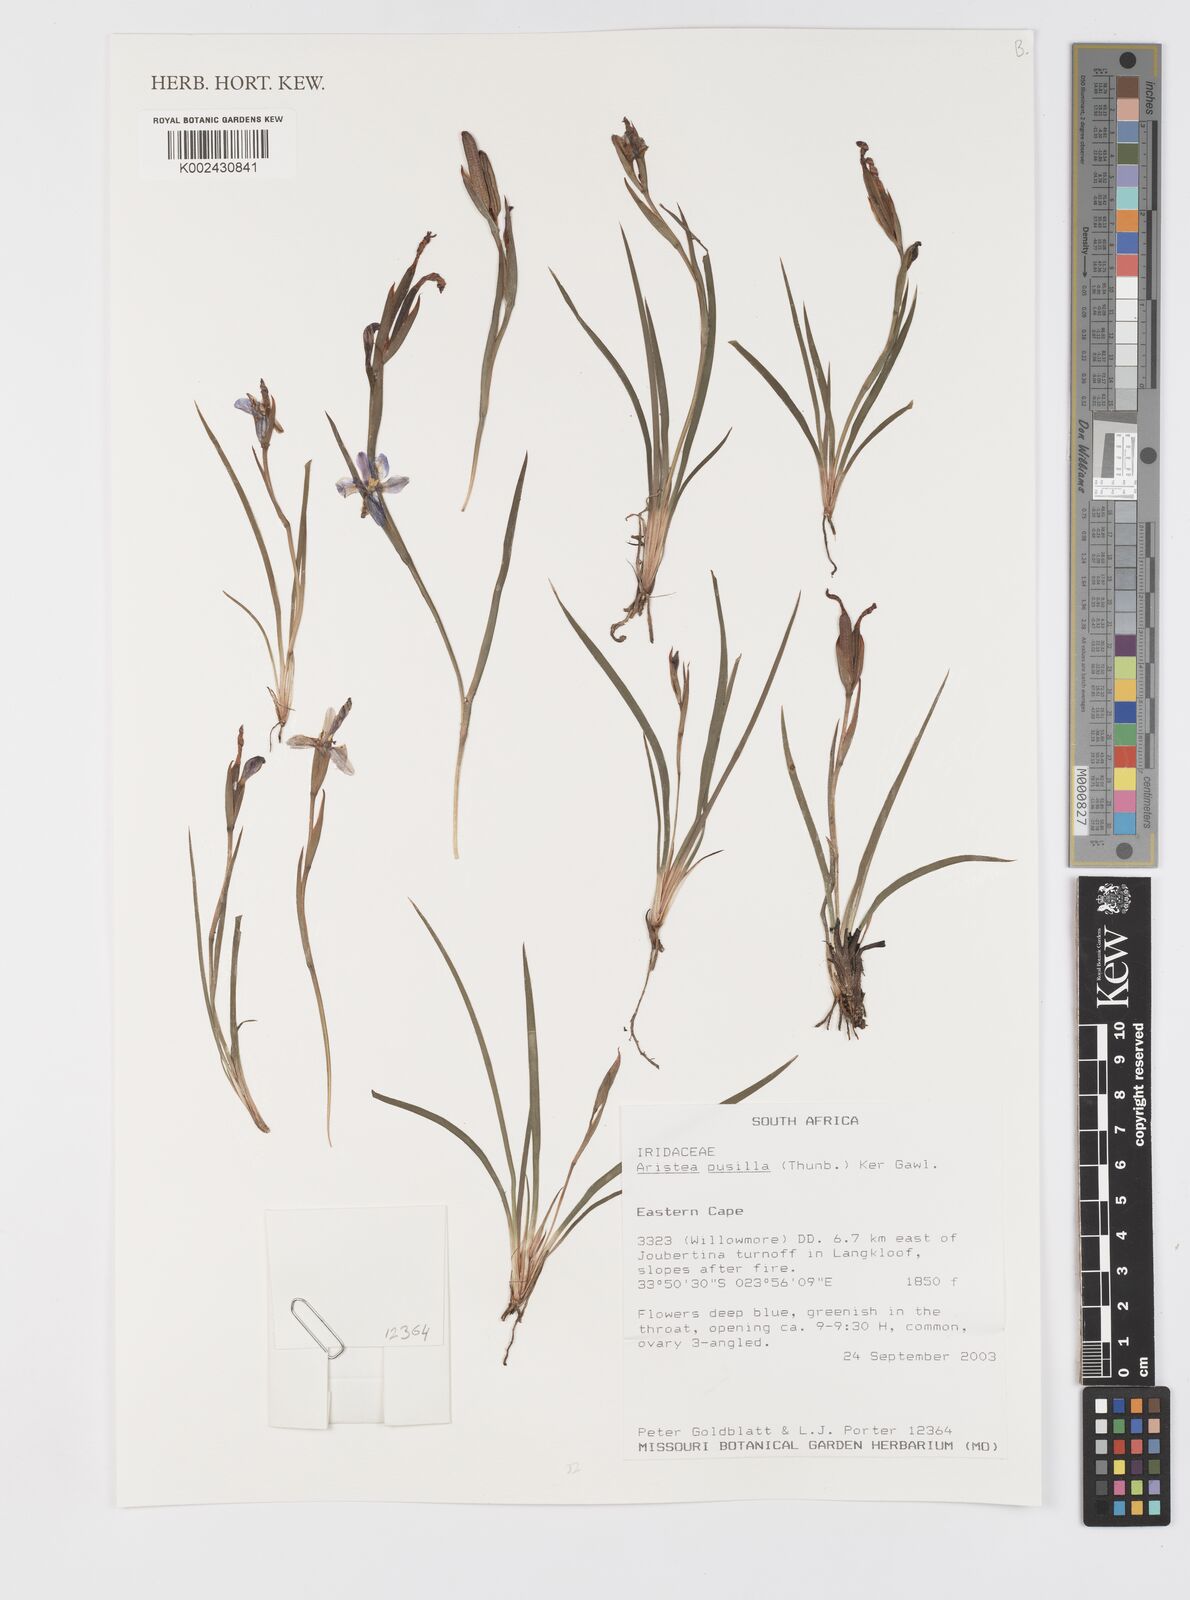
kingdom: Plantae
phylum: Tracheophyta
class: Liliopsida
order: Asparagales
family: Iridaceae
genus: Aristea
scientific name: Aristea pusilla
